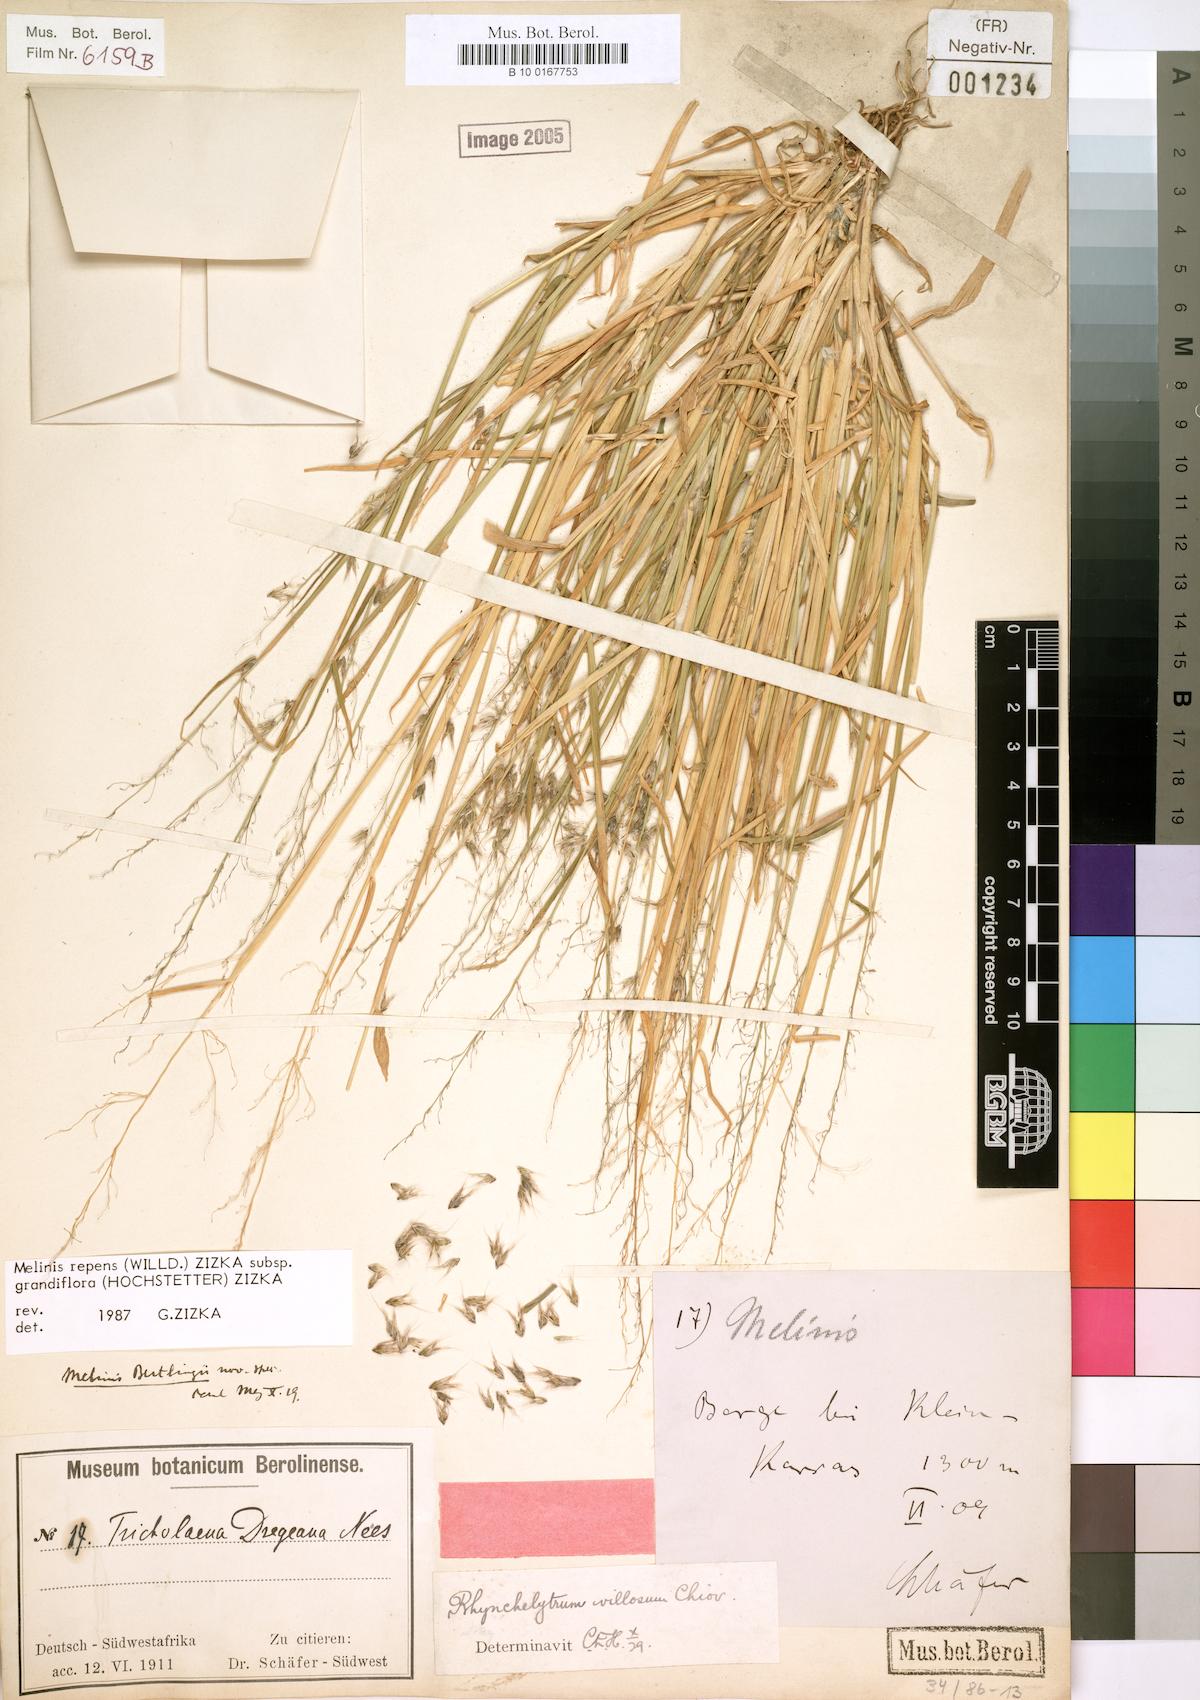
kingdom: Plantae
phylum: Tracheophyta
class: Liliopsida
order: Poales
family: Poaceae
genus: Melinis
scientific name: Melinis repens
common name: Rose natal grass
